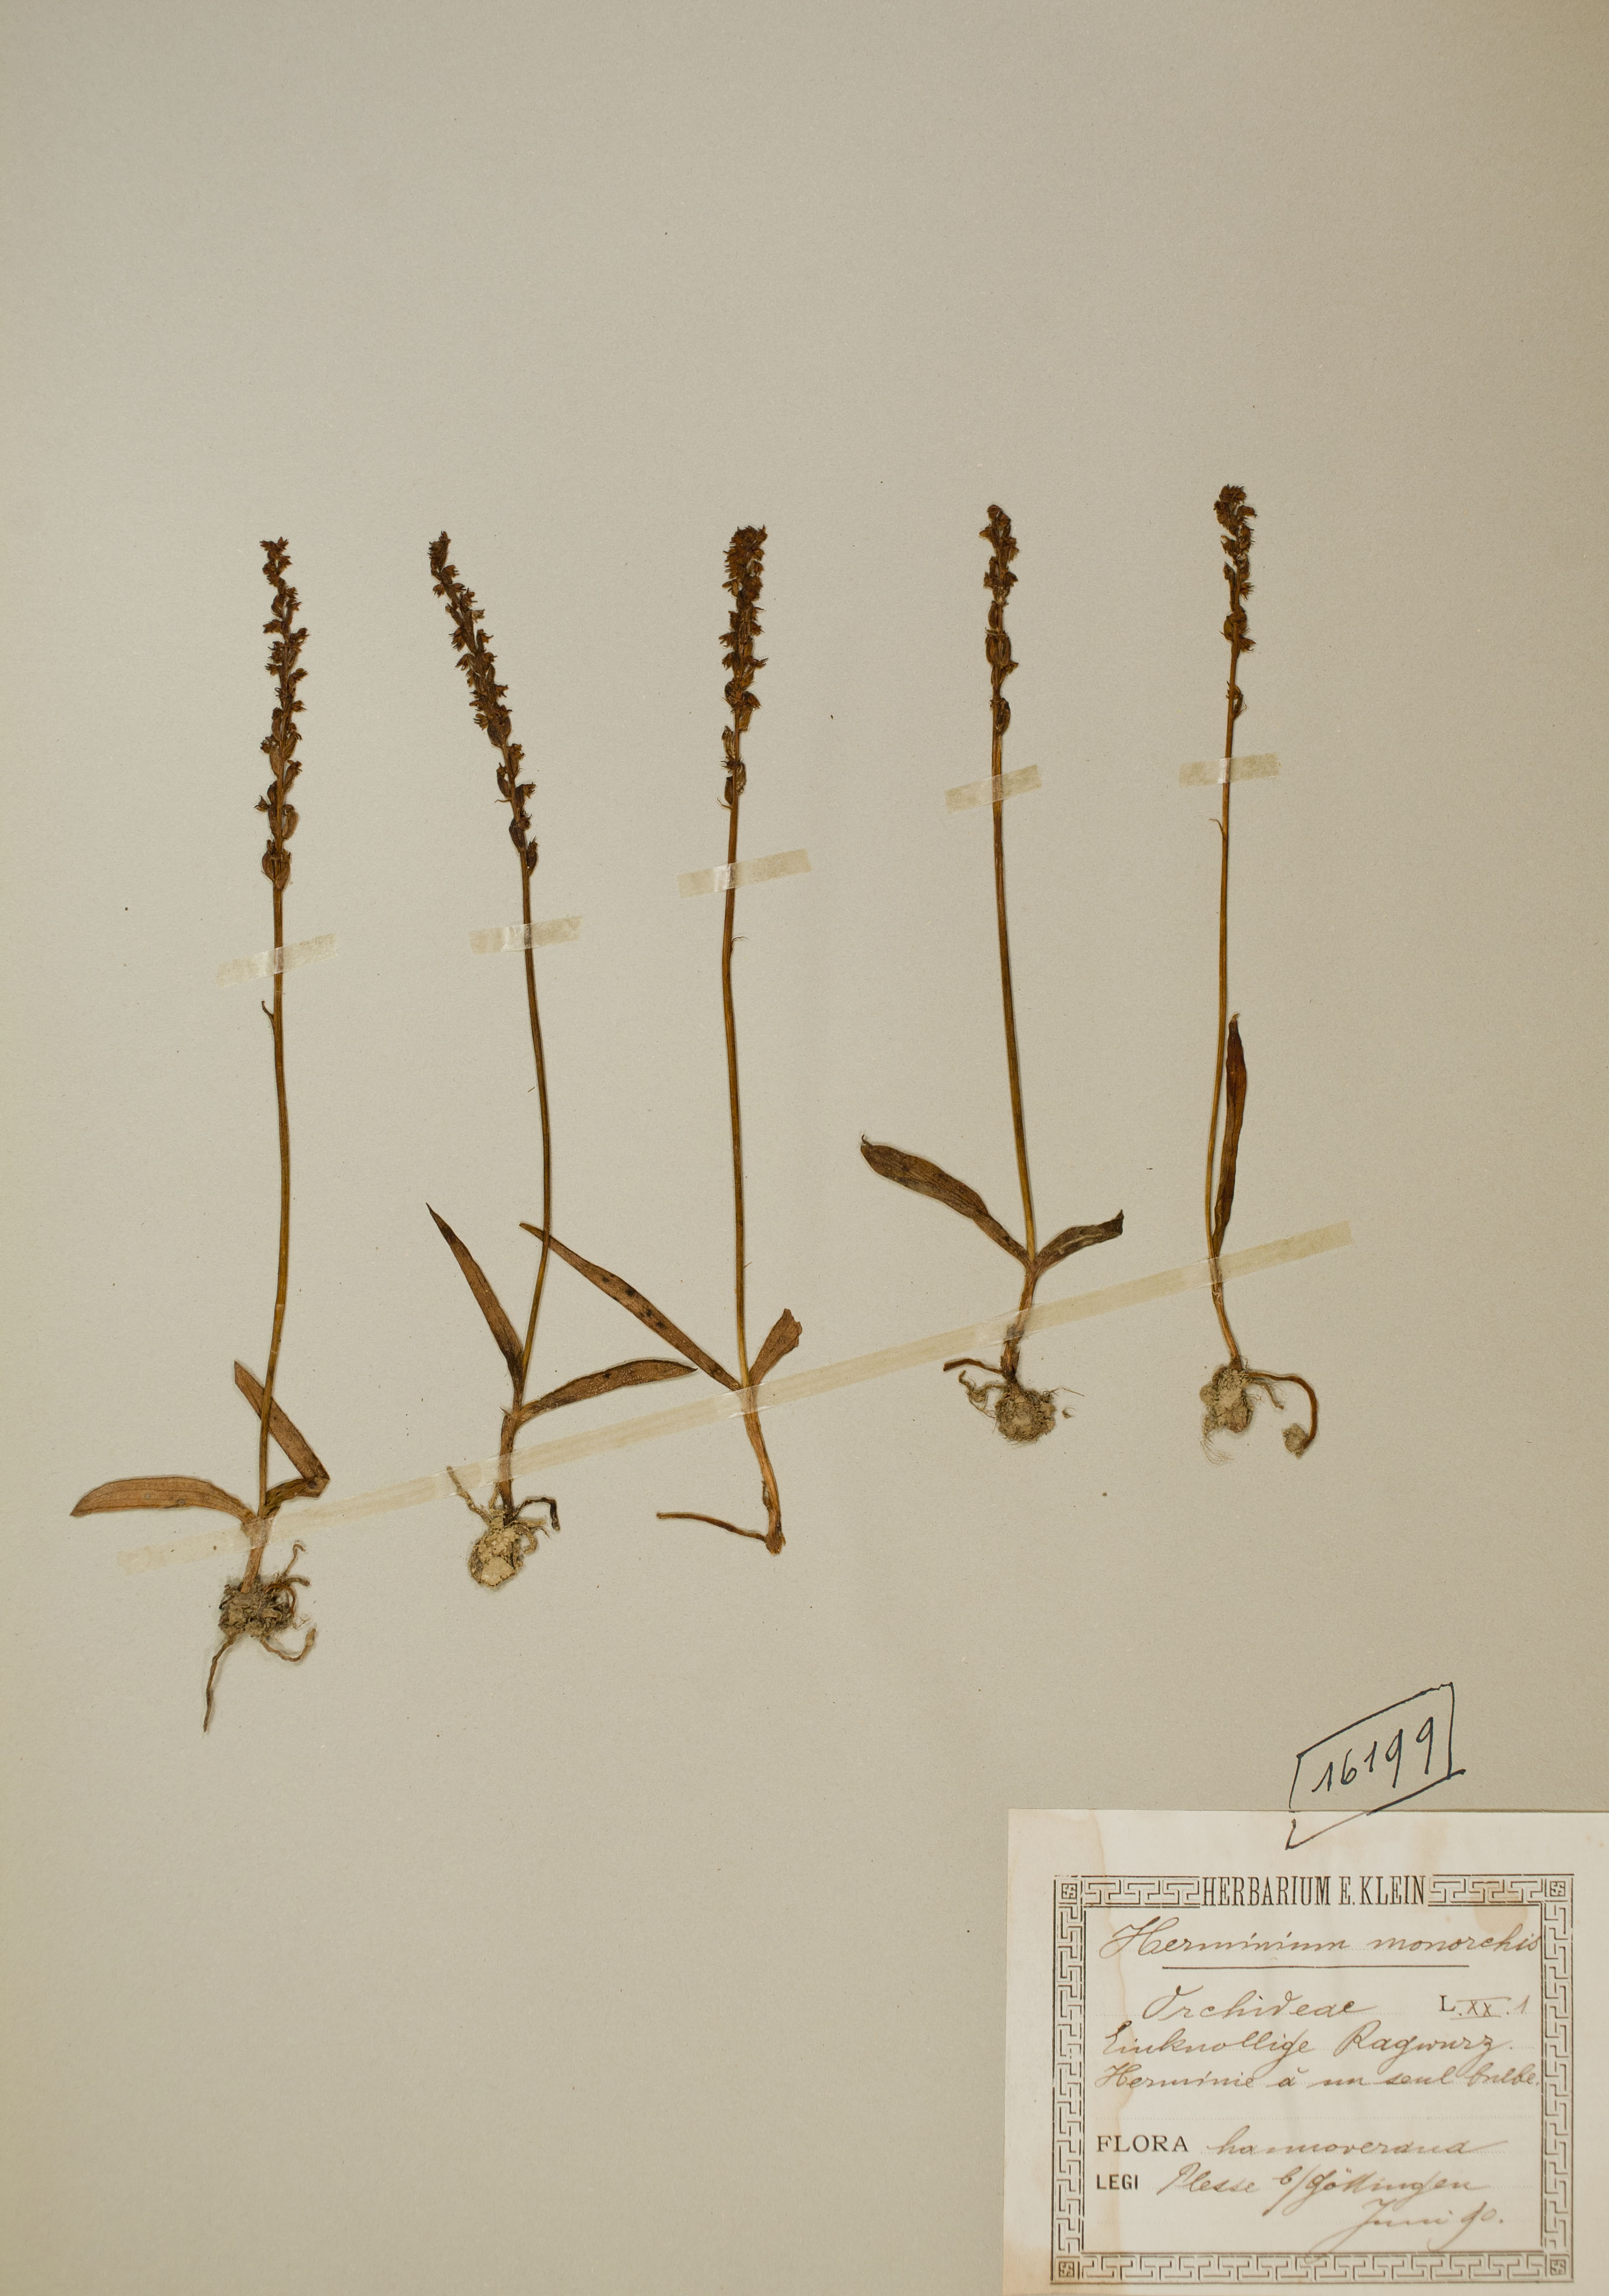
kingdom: Plantae
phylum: Tracheophyta
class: Liliopsida
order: Asparagales
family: Orchidaceae
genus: Herminium
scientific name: Herminium monorchis
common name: Musk orchid
